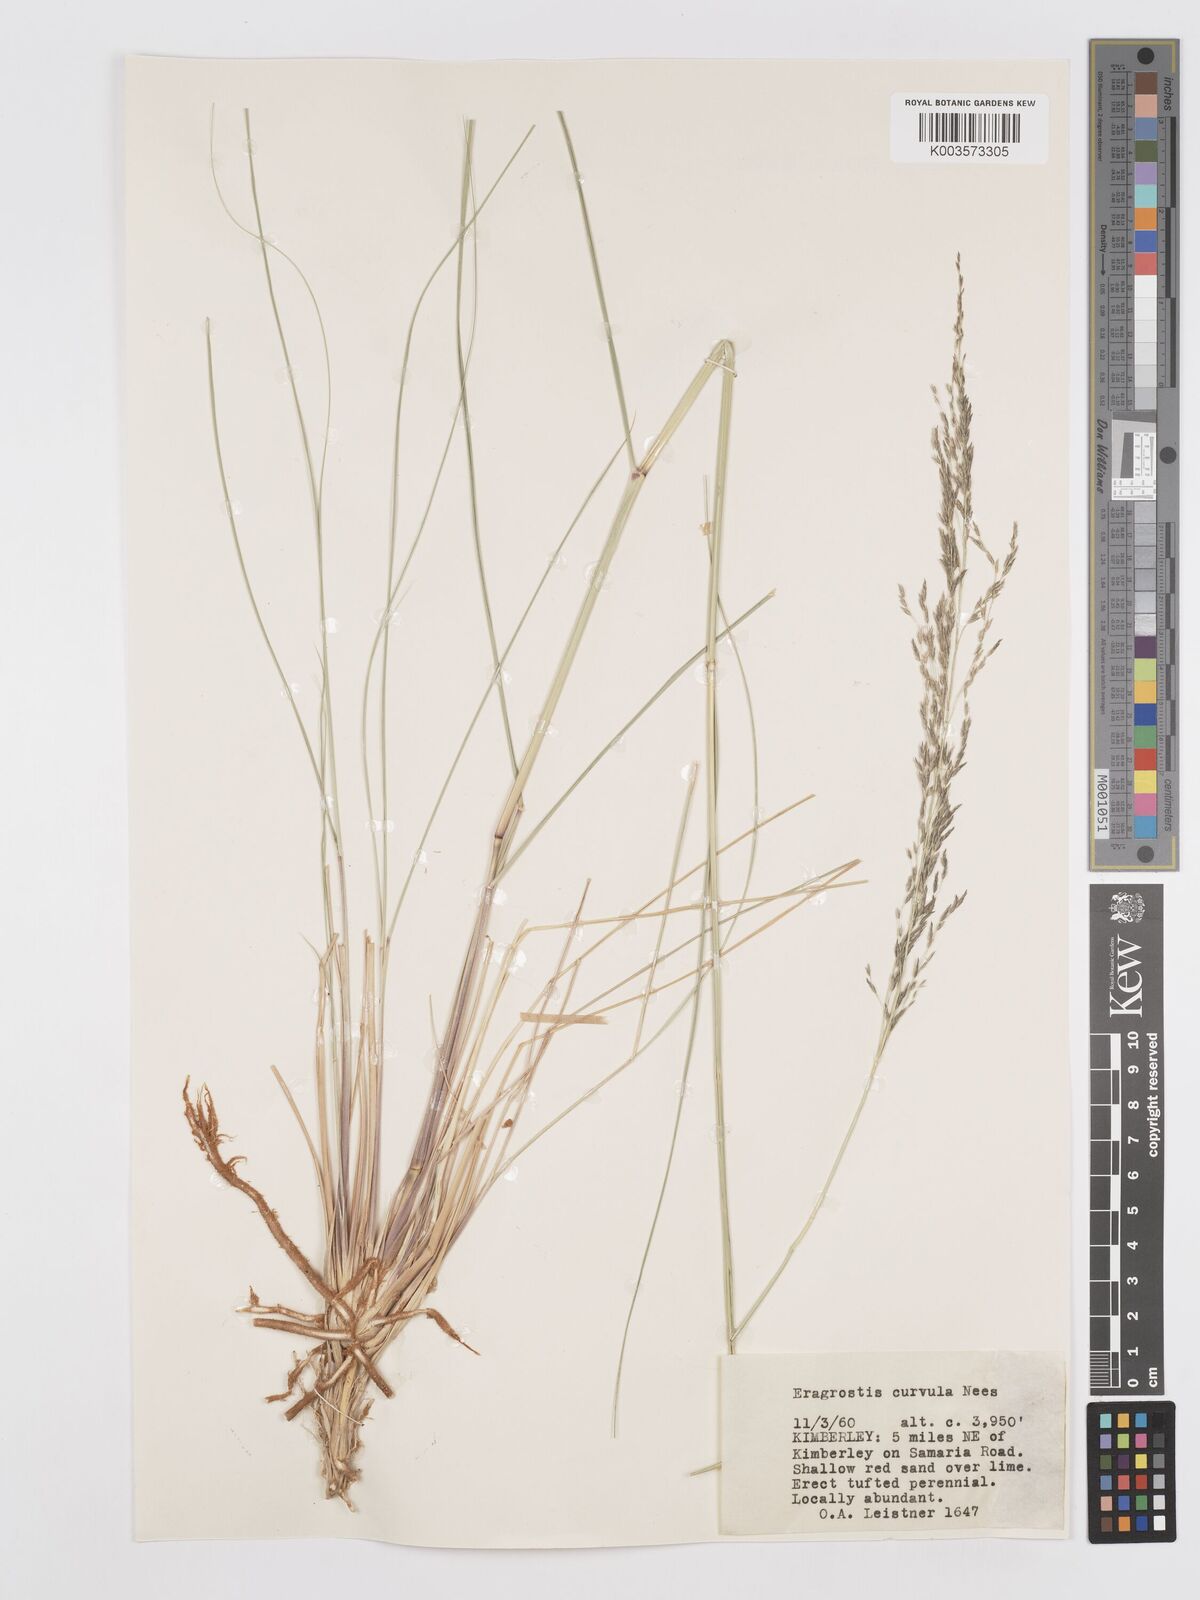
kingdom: Plantae
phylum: Tracheophyta
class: Liliopsida
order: Poales
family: Poaceae
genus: Eragrostis
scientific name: Eragrostis curvula
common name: African love-grass
